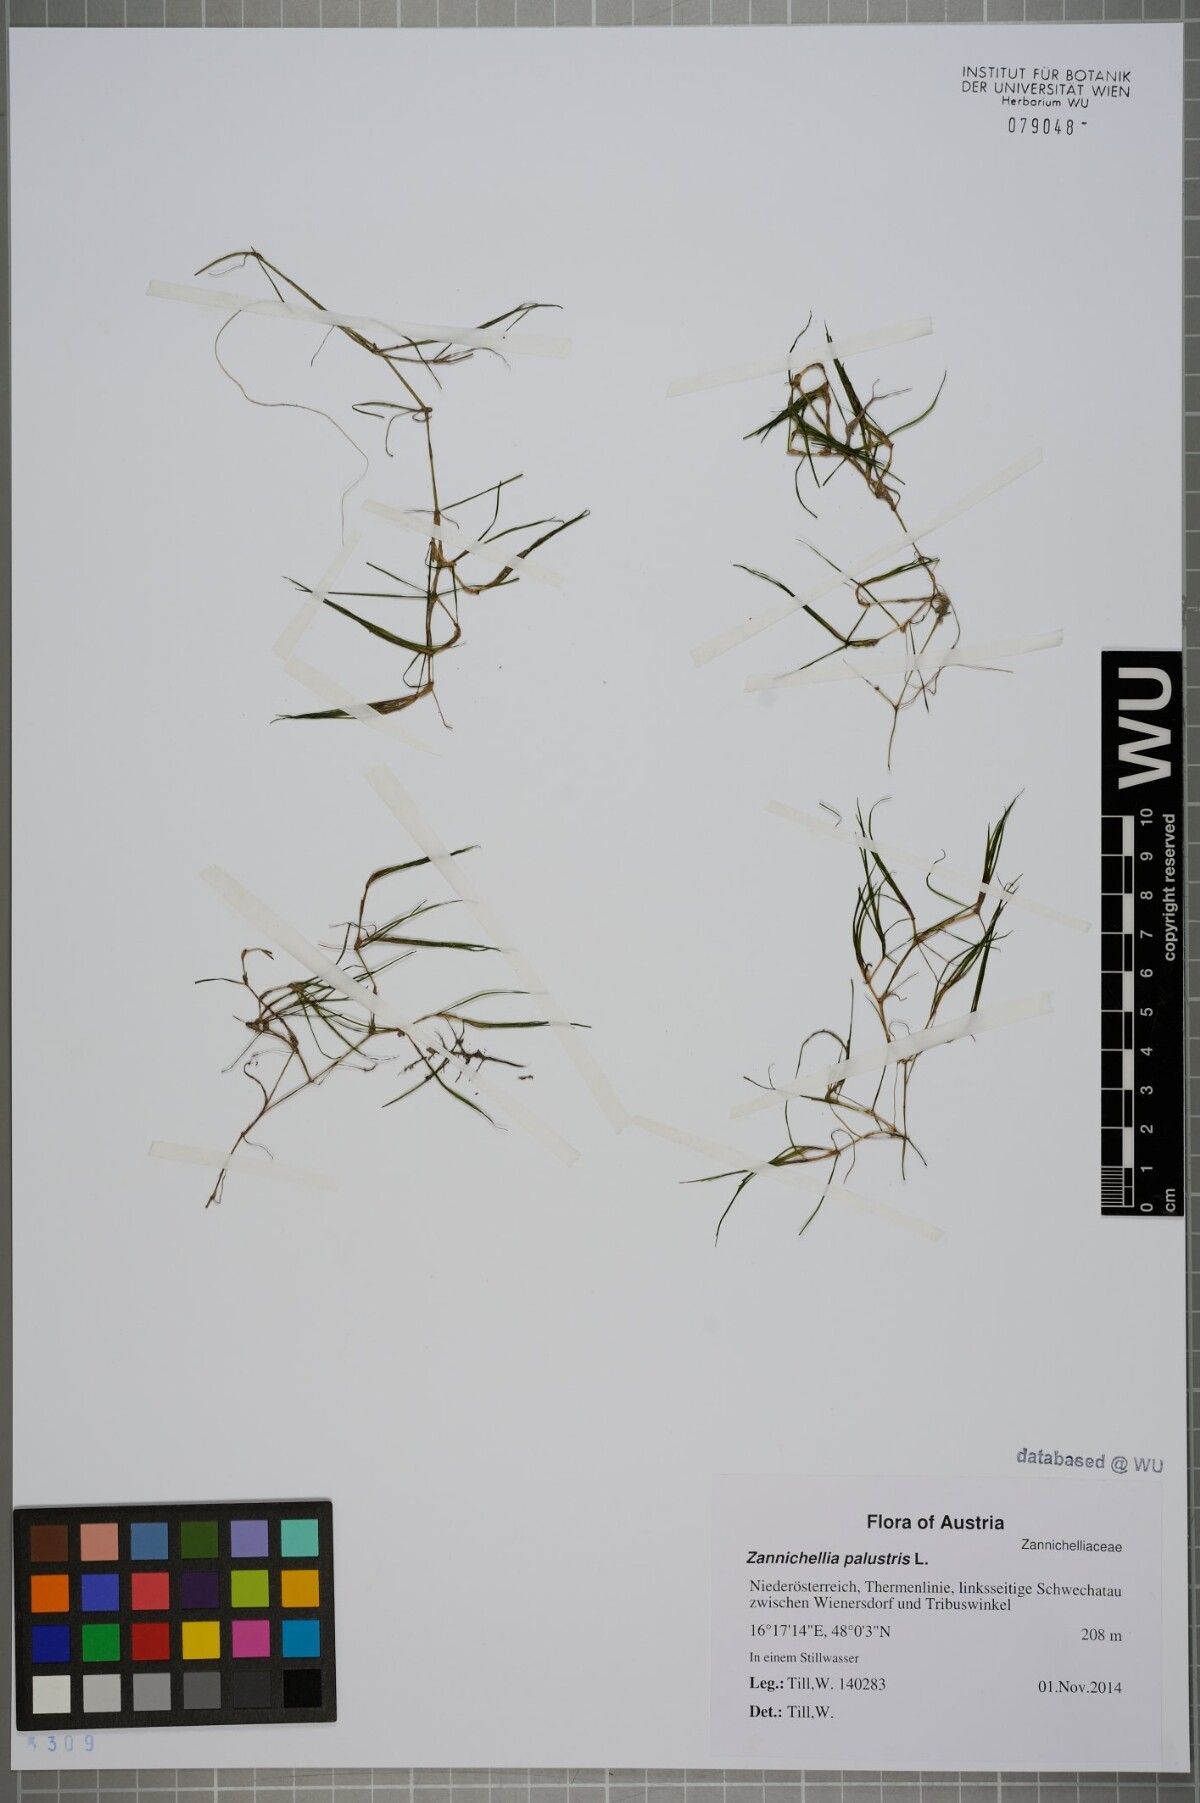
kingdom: Plantae
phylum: Tracheophyta
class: Liliopsida
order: Alismatales
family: Potamogetonaceae
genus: Zannichellia
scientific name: Zannichellia palustris
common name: Horned pondweed
